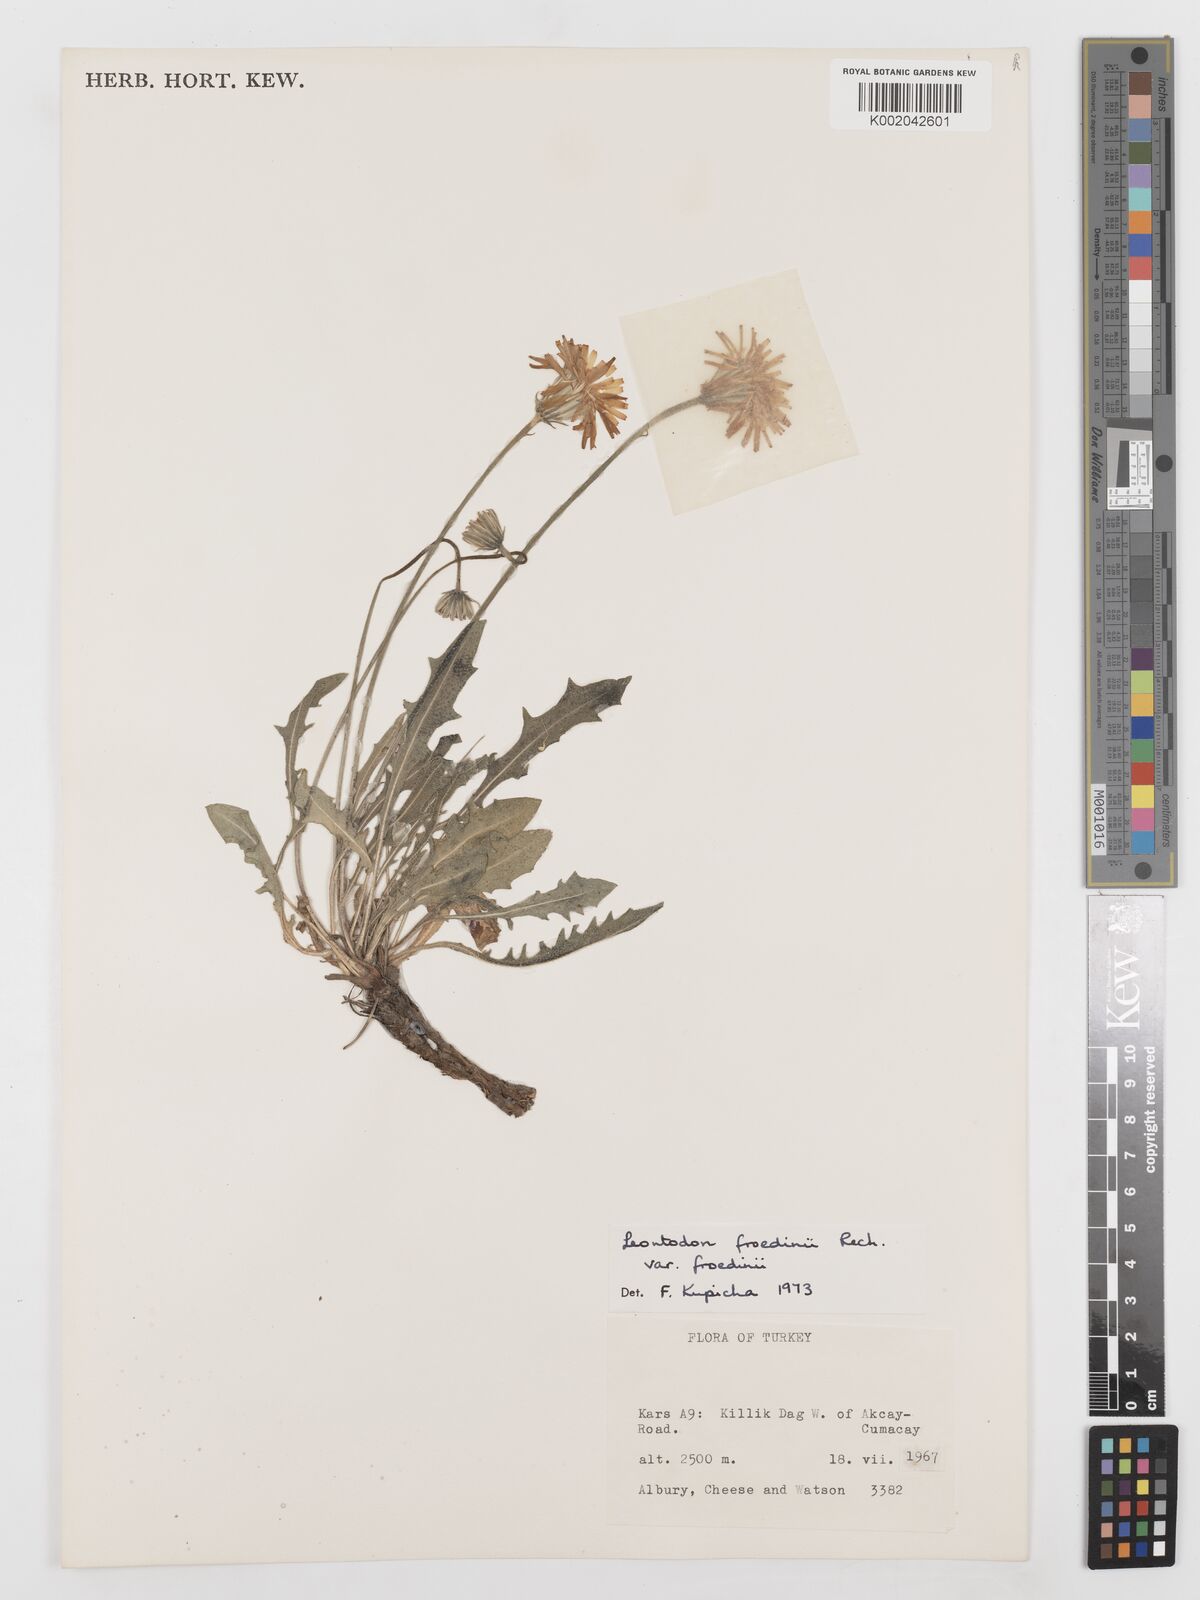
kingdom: Plantae
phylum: Tracheophyta
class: Magnoliopsida
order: Asterales
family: Asteraceae
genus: Leontodon
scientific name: Leontodon
